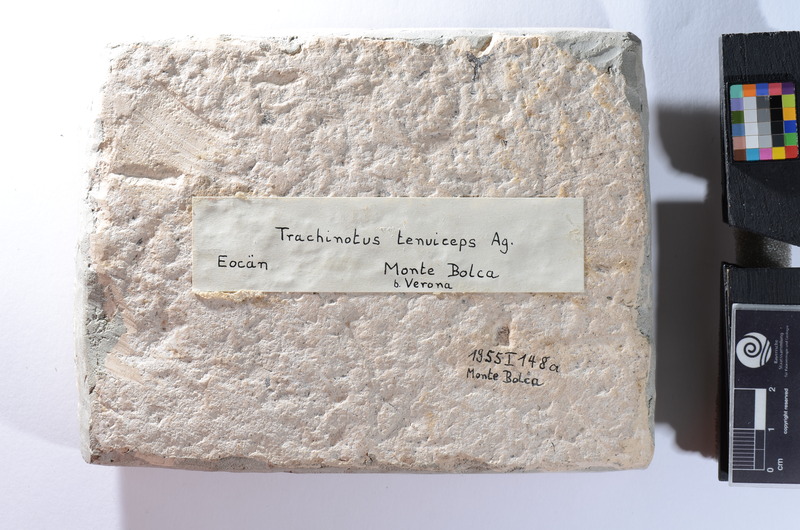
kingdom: Animalia
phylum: Chordata
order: Perciformes
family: Carangidae
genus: Trachinotus
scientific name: Trachinotus tenuiceps
